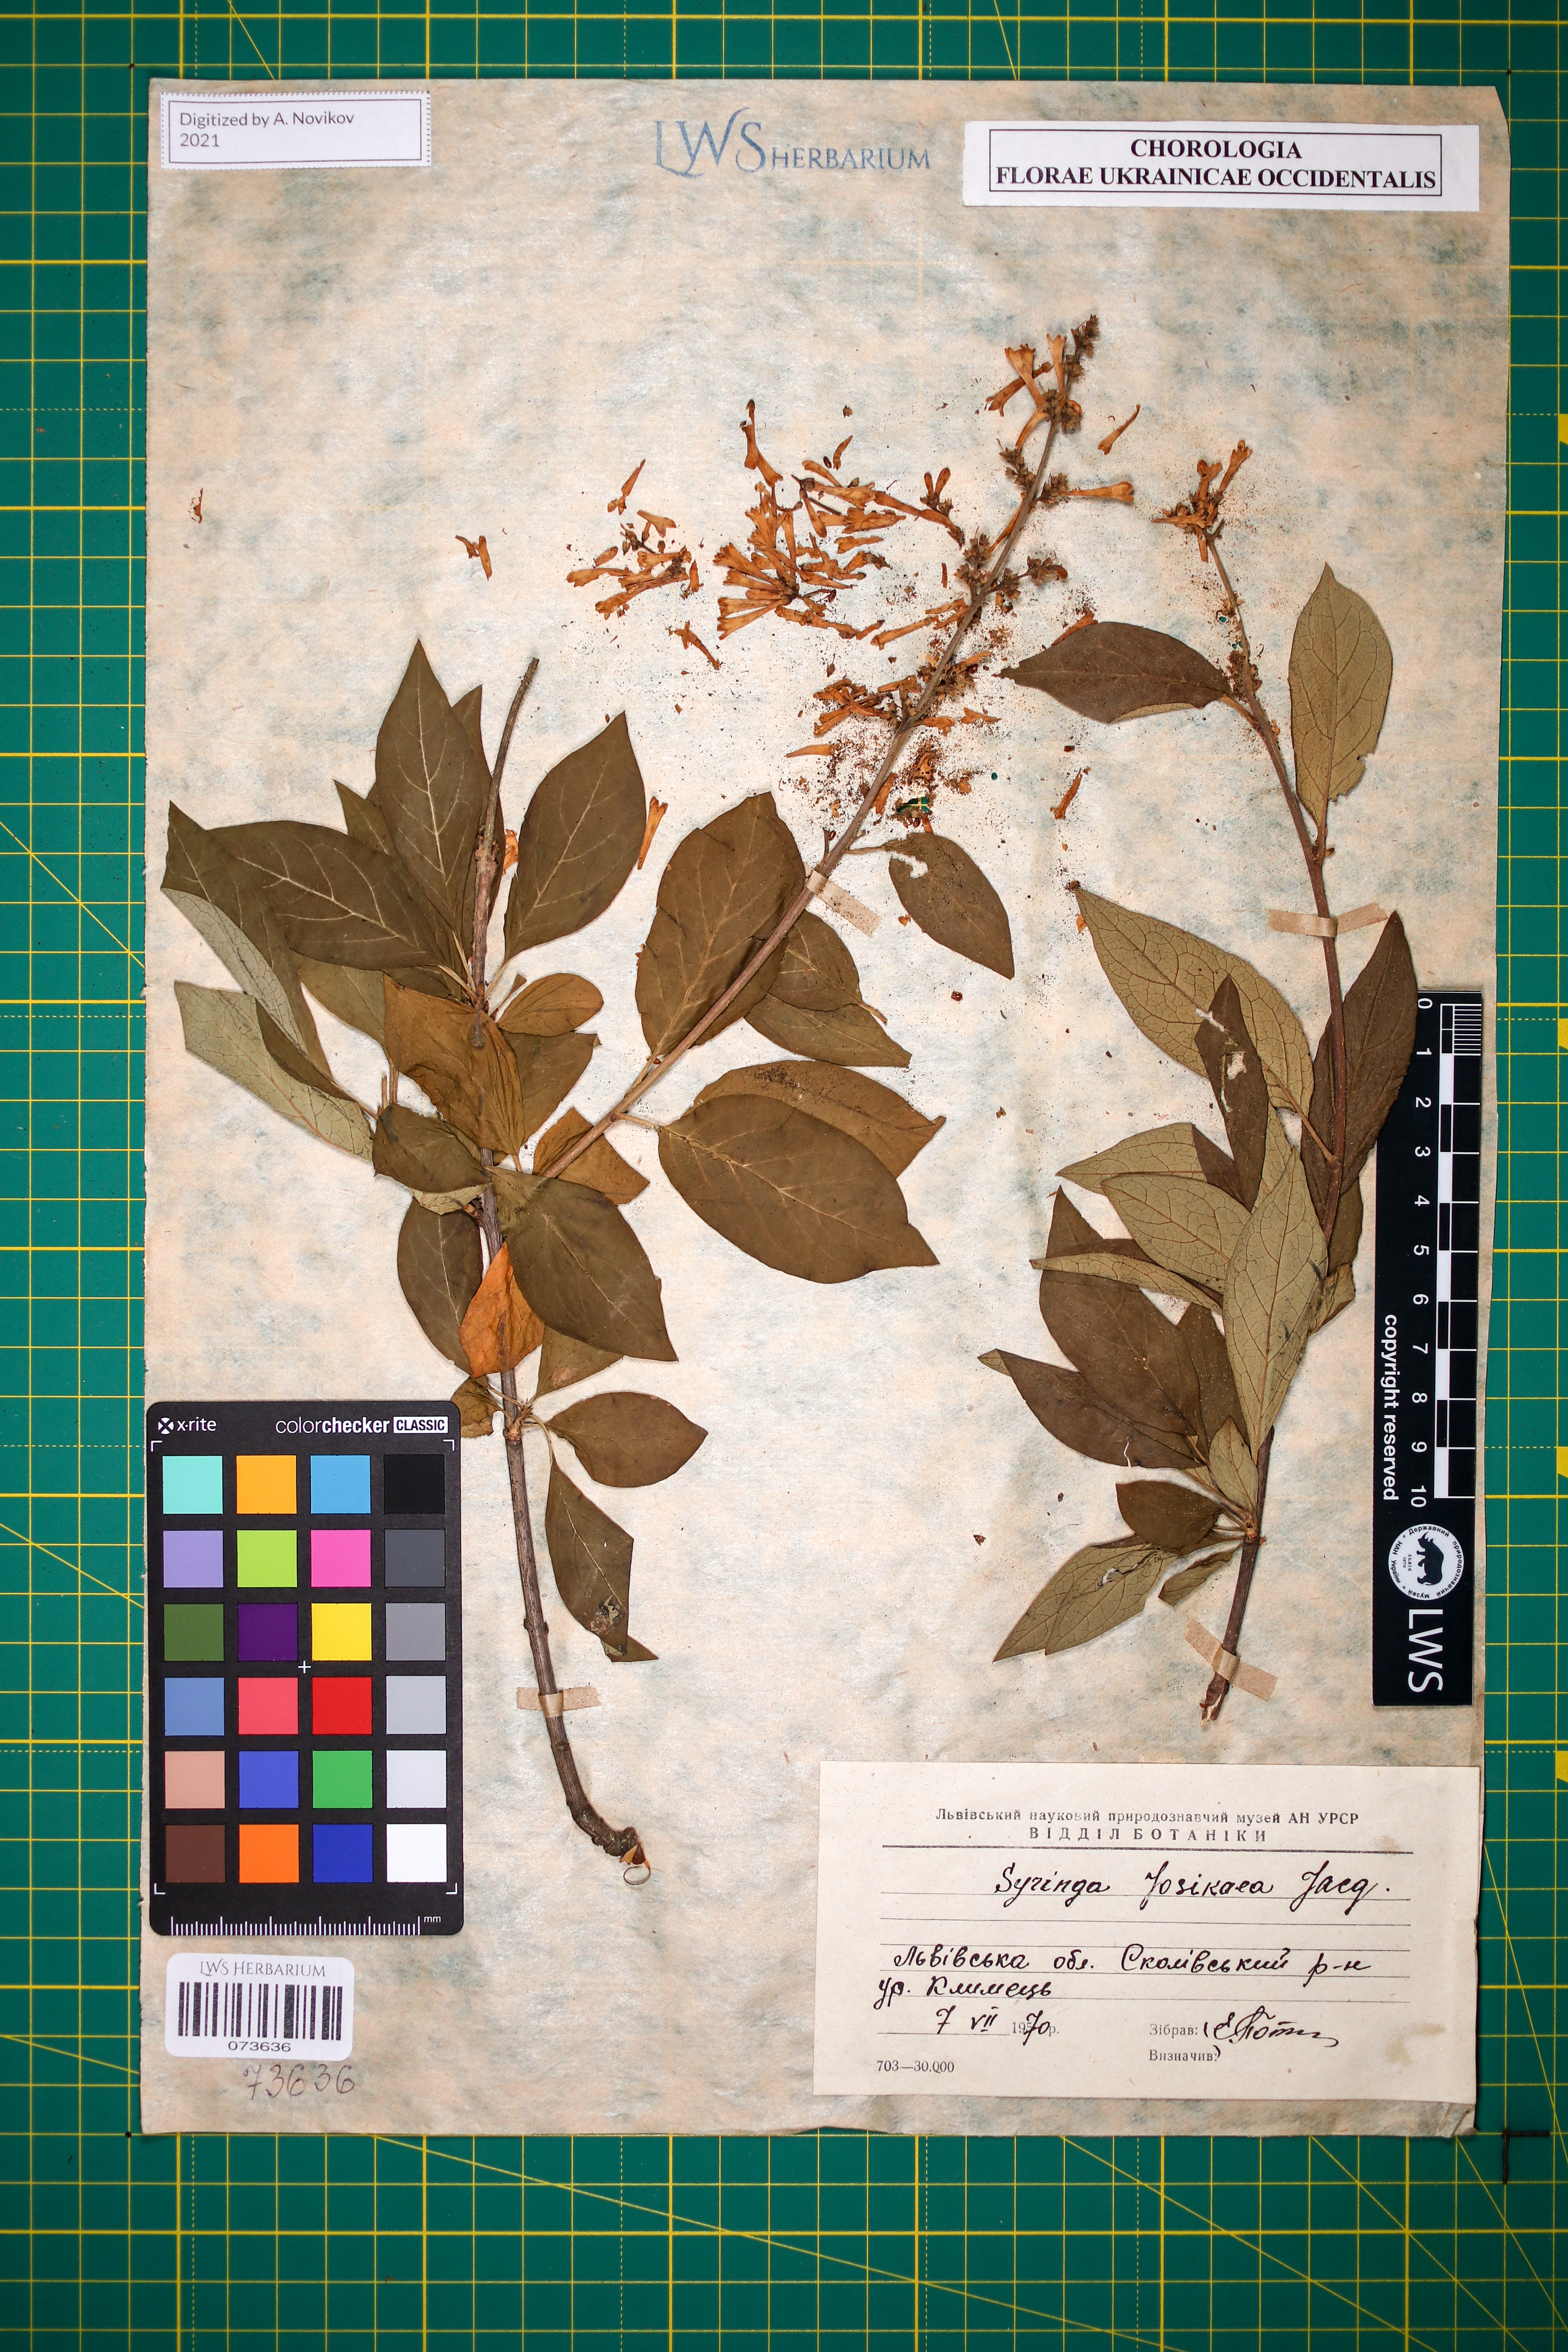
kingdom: Plantae
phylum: Tracheophyta
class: Magnoliopsida
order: Lamiales
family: Oleaceae
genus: Syringa
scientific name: Syringa josikaea
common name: Hungarian lilac
